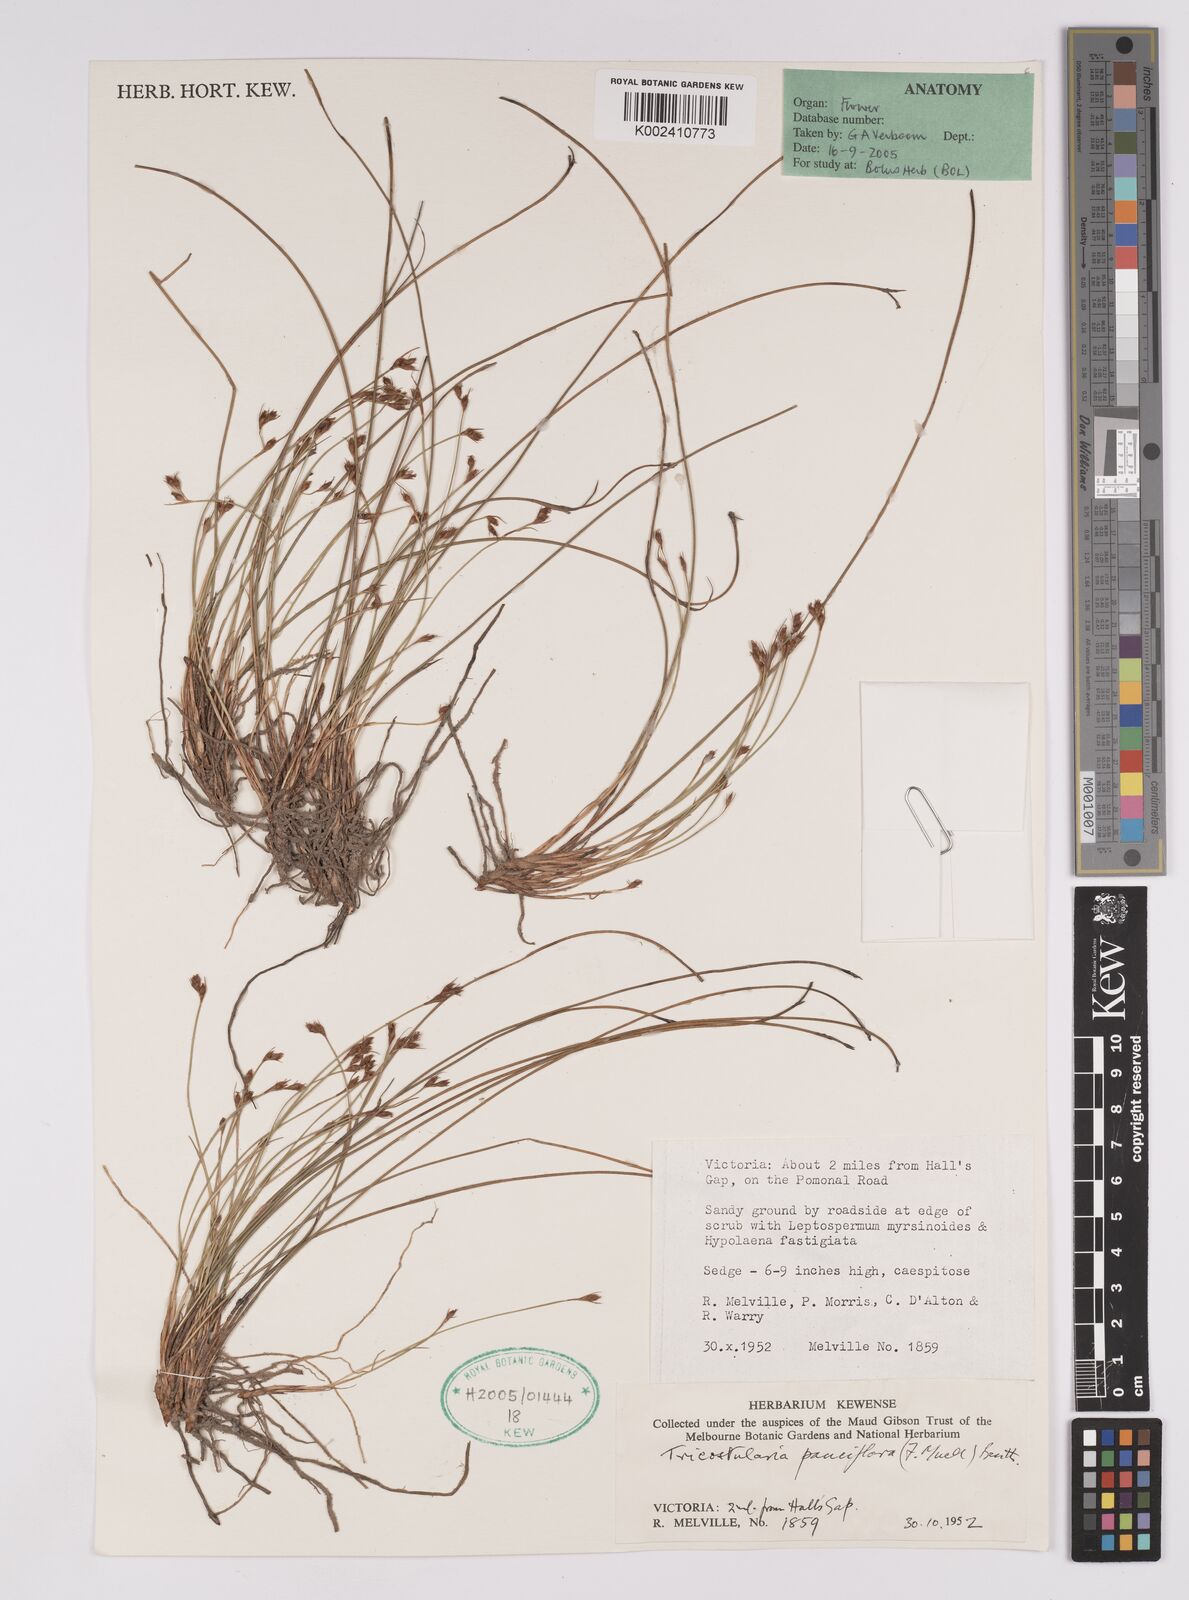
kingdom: Plantae
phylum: Tracheophyta
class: Liliopsida
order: Poales
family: Cyperaceae
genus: Tricostularia
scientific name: Tricostularia pauciflora
